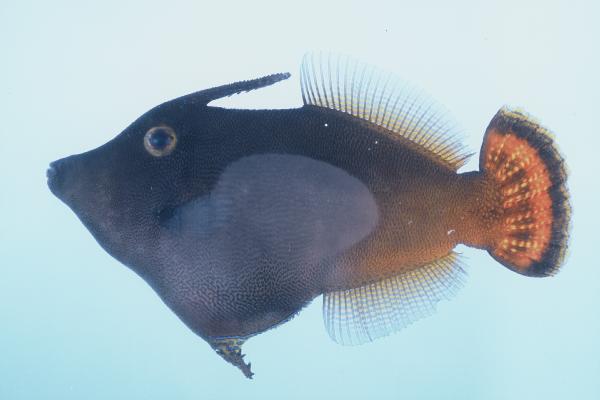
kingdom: Animalia
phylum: Chordata
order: Tetraodontiformes
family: Monacanthidae
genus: Pervagor
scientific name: Pervagor aspricaudus
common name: Orangetail filefish
